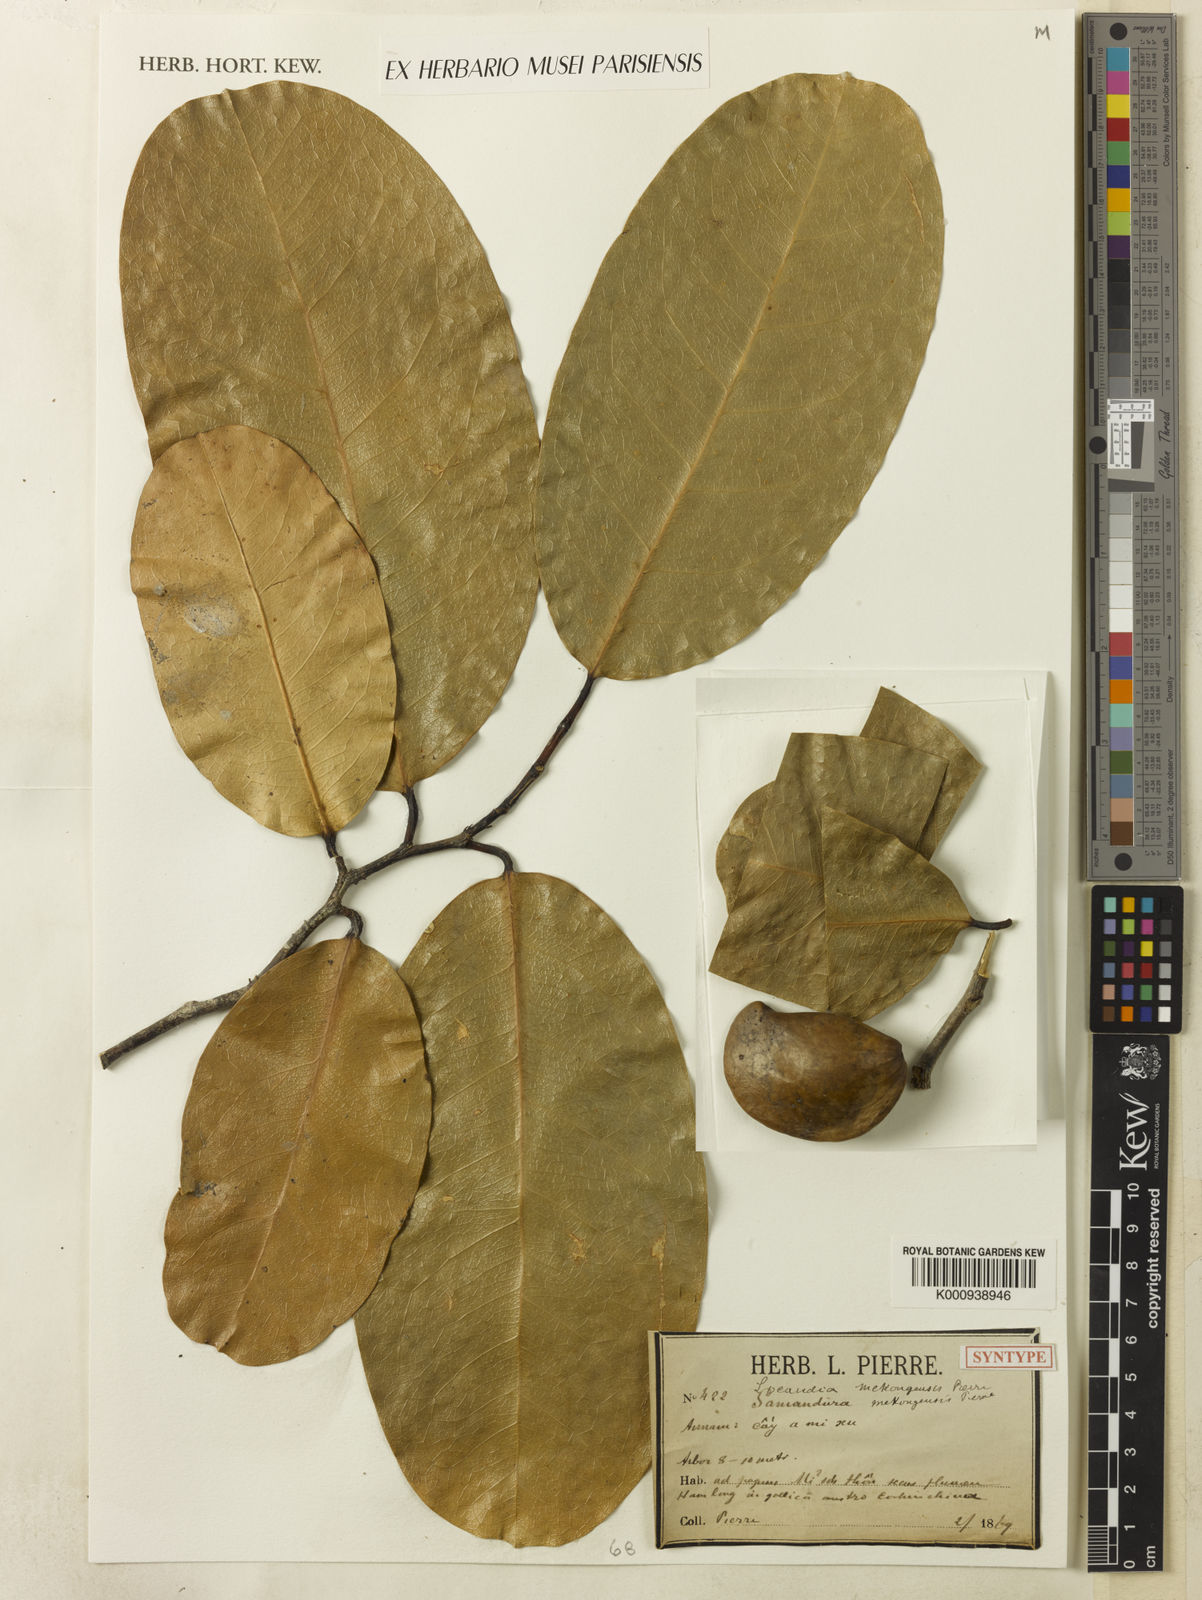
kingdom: Plantae
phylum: Tracheophyta
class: Magnoliopsida
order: Sapindales
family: Simaroubaceae
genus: Samadera
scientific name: Samadera
